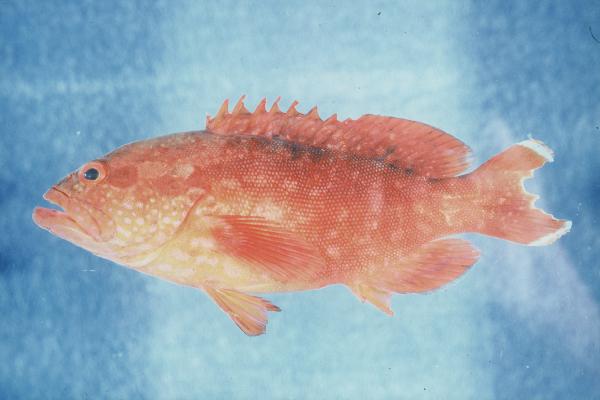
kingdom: Animalia
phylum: Chordata
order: Perciformes
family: Serranidae
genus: Cephalopholis
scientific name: Cephalopholis spiloparaea
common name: Strawberry grouper
